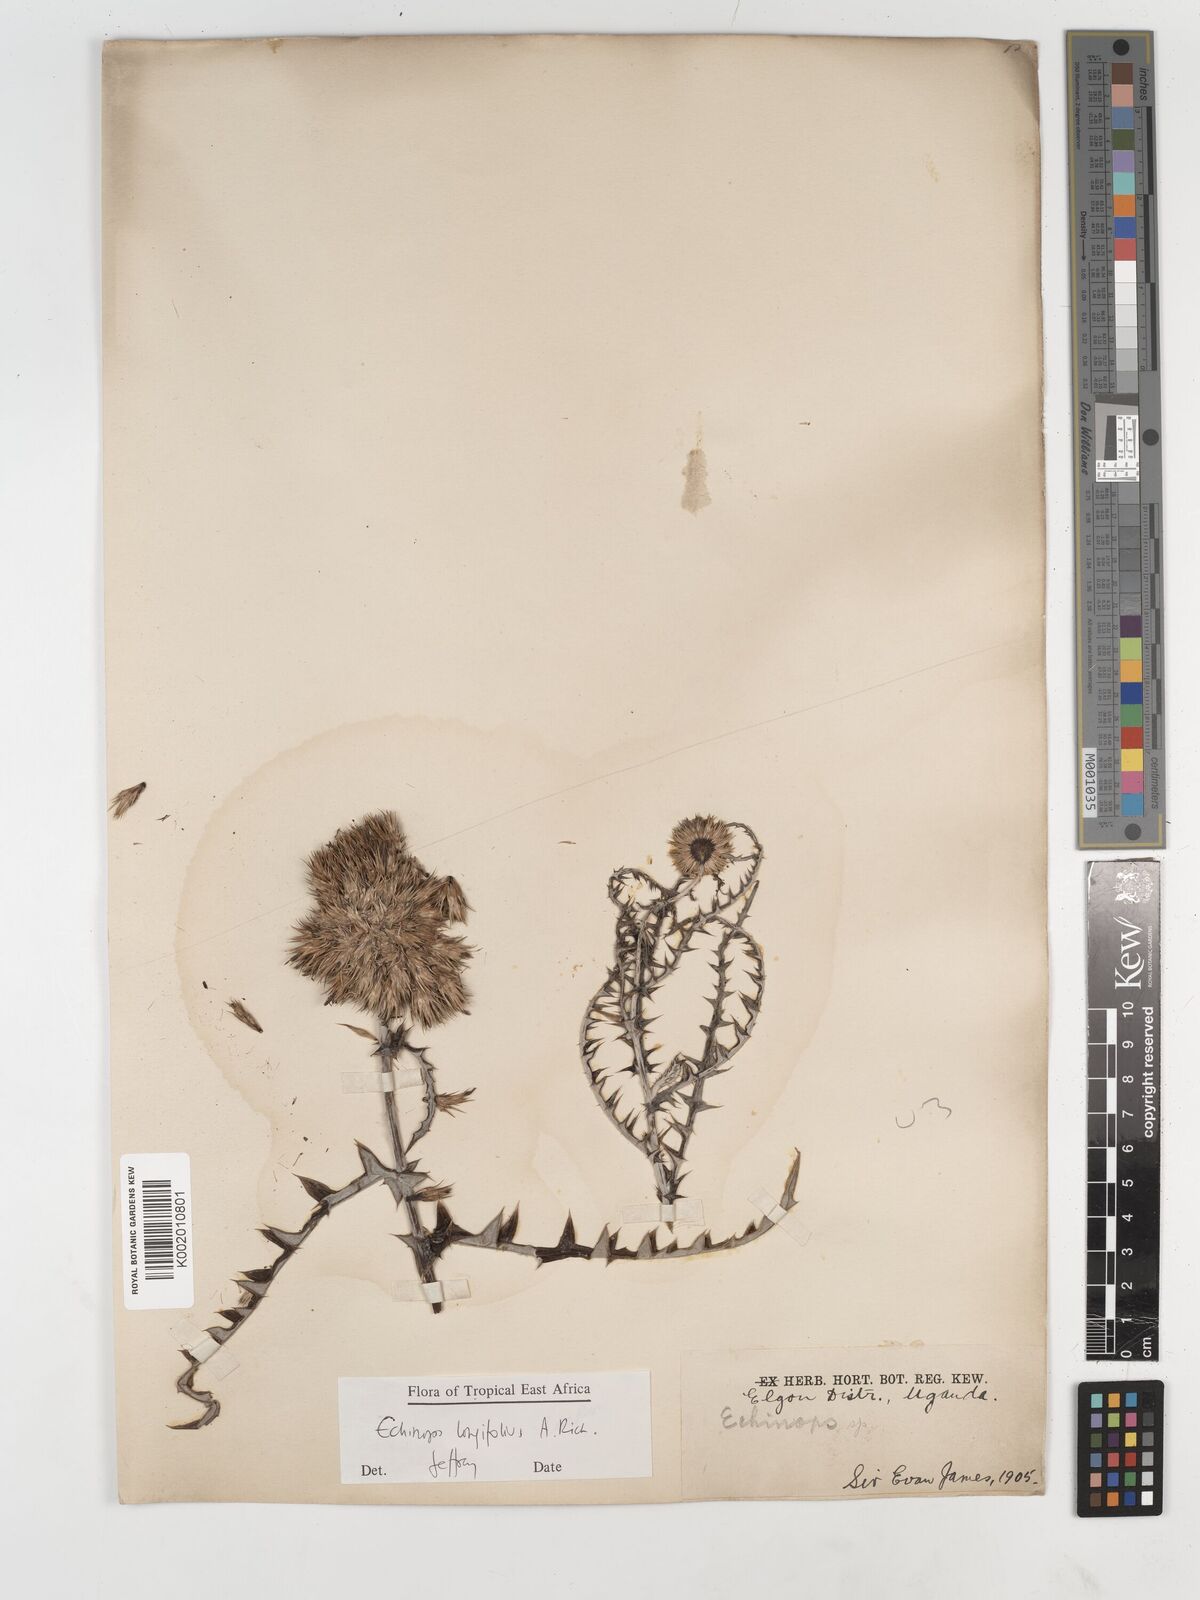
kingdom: Plantae
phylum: Tracheophyta
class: Magnoliopsida
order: Asterales
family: Asteraceae
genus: Echinops
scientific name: Echinops longifolius
